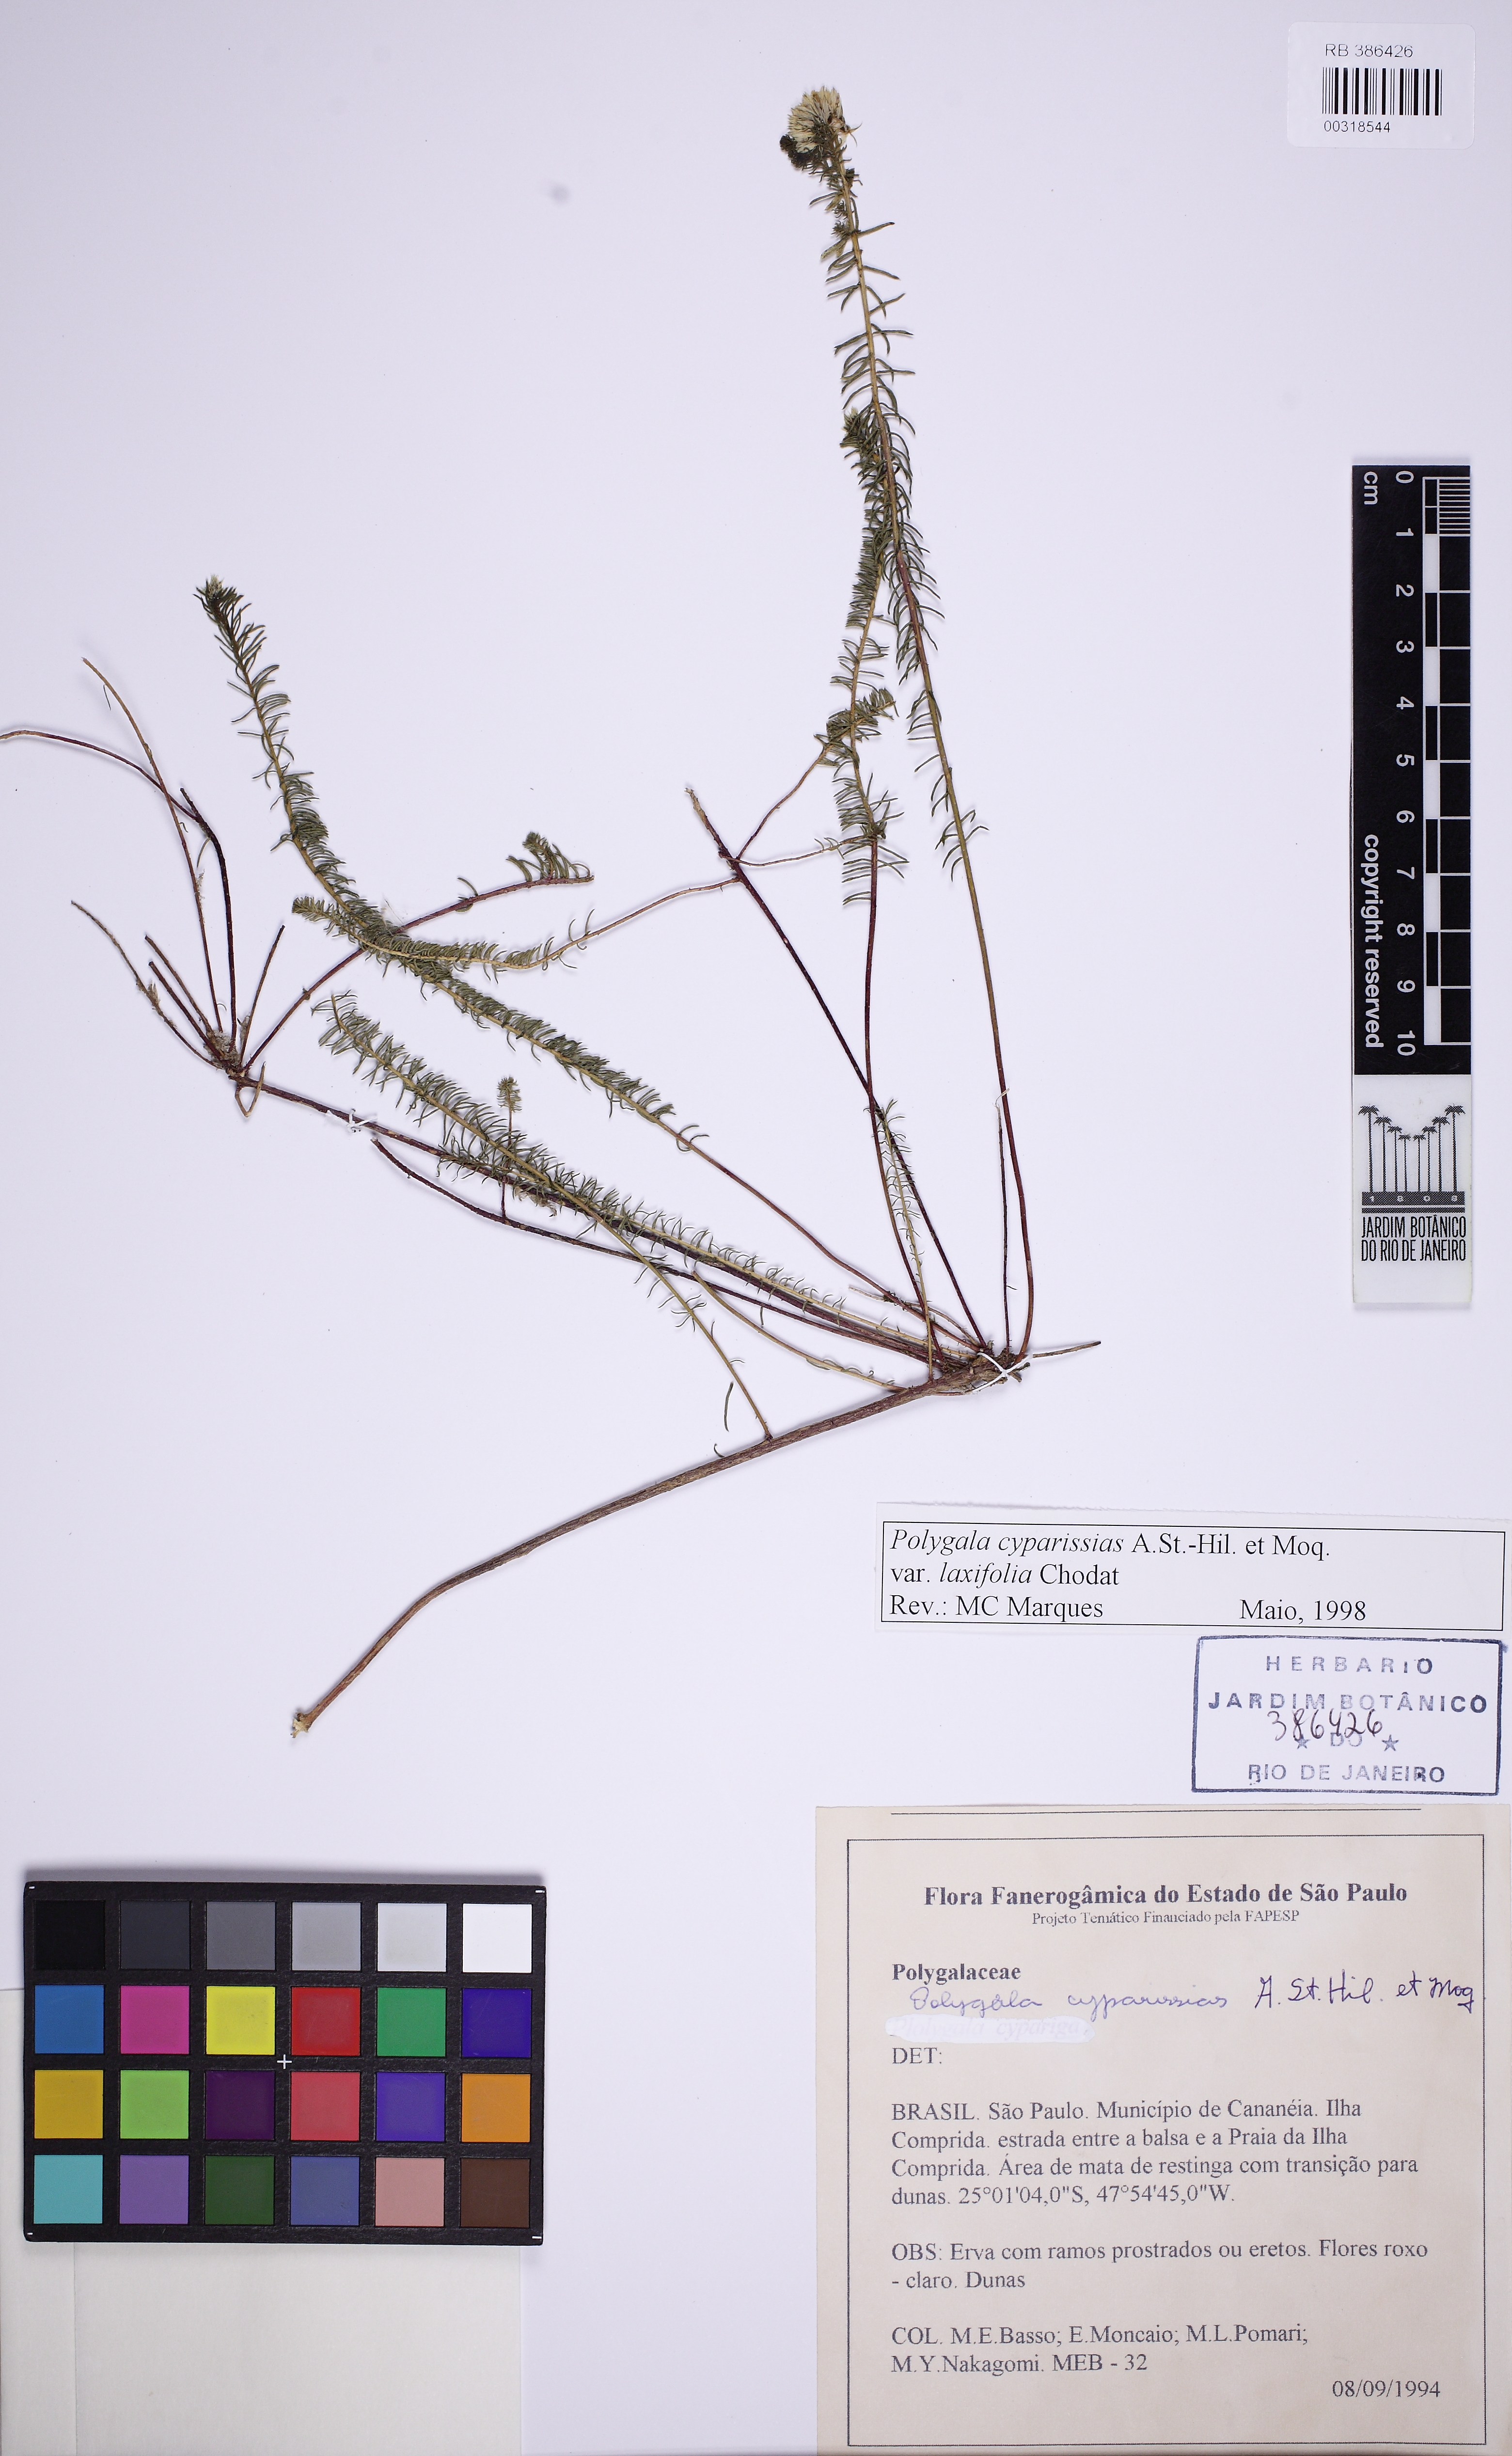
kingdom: Plantae
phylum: Tracheophyta
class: Magnoliopsida
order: Fabales
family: Polygalaceae
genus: Polygala
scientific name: Polygala cyparissias
